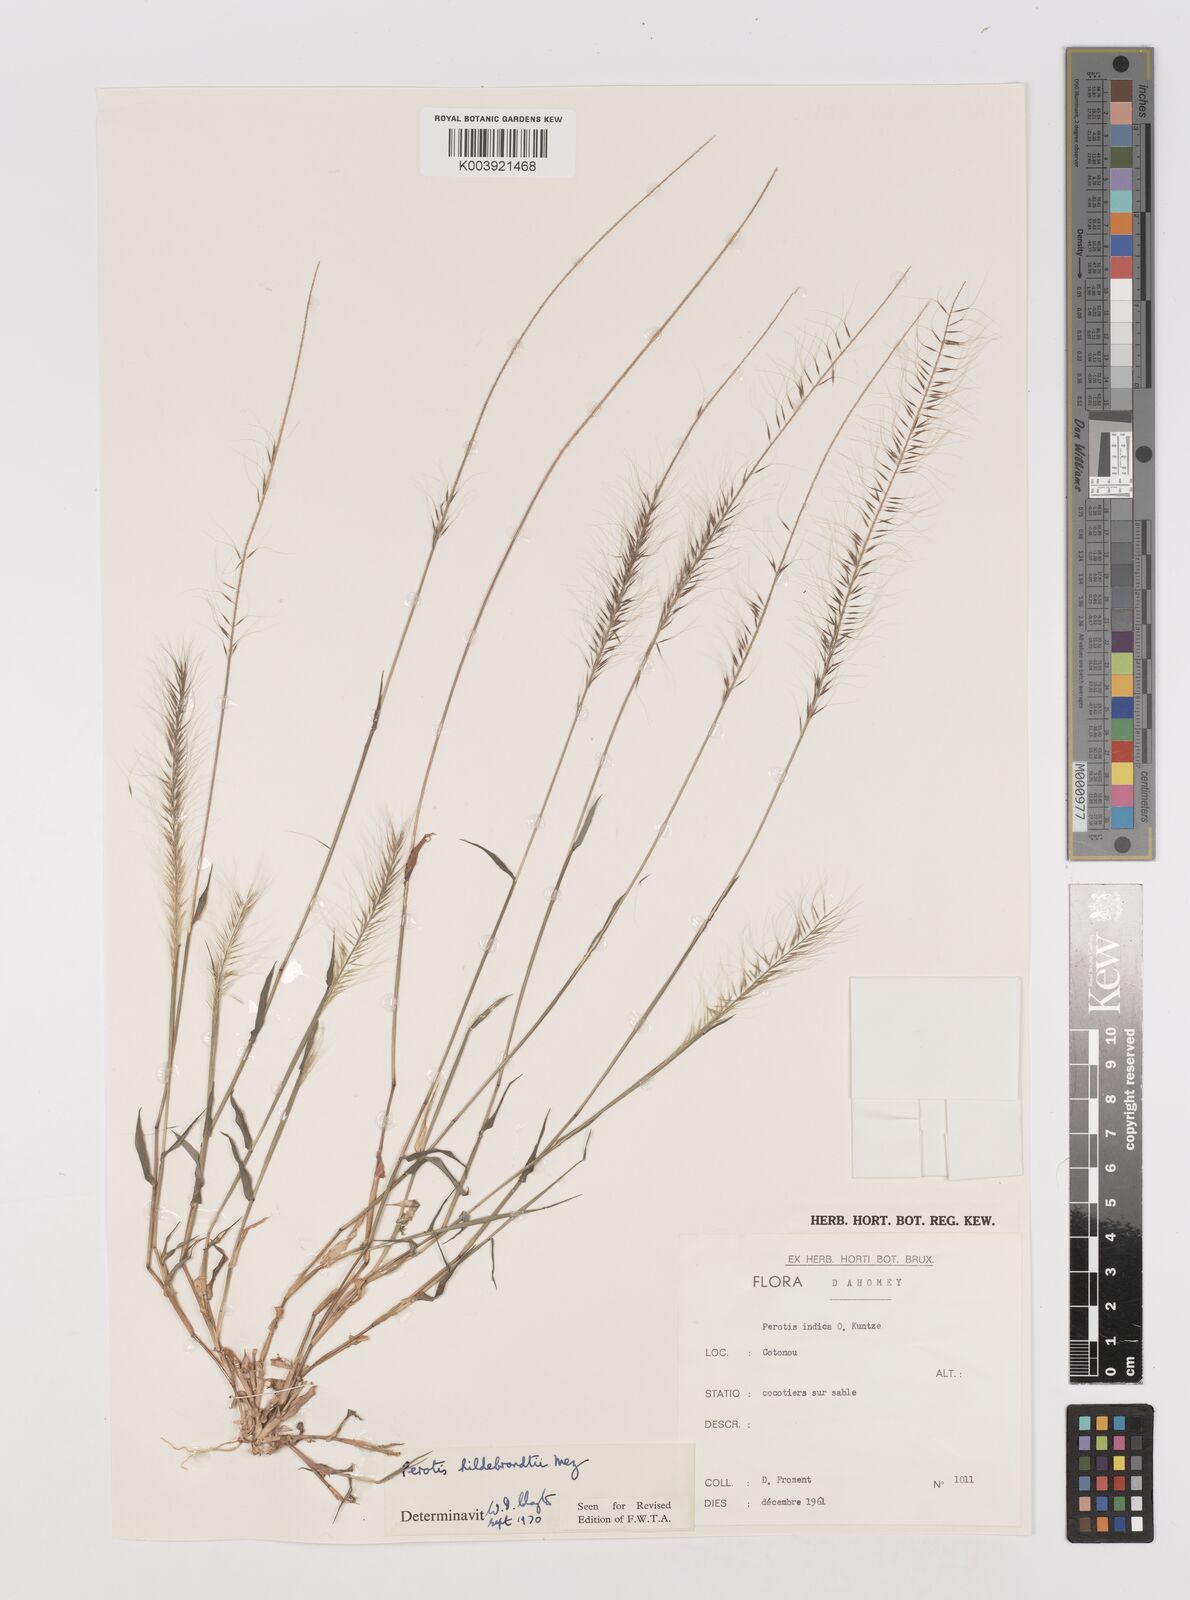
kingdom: Plantae
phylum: Tracheophyta
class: Liliopsida
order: Poales
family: Poaceae
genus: Perotis
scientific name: Perotis hildebrandtii
